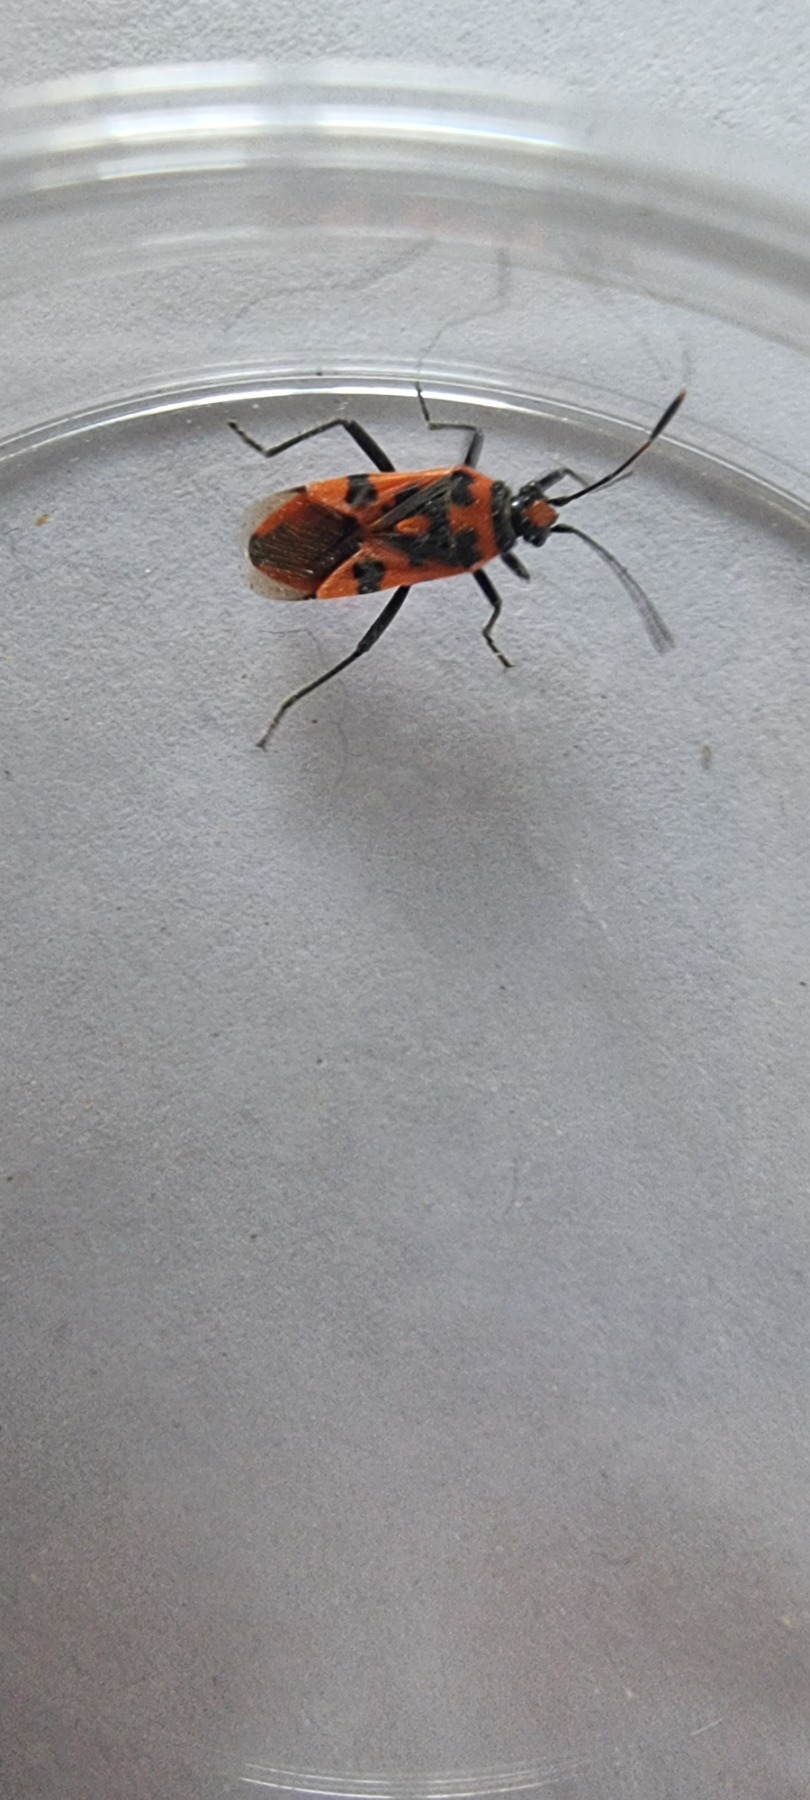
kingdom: Animalia
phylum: Arthropoda
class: Insecta
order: Hemiptera
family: Rhopalidae
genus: Corizus
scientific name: Corizus hyoscyami
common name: Rød kanttæge
